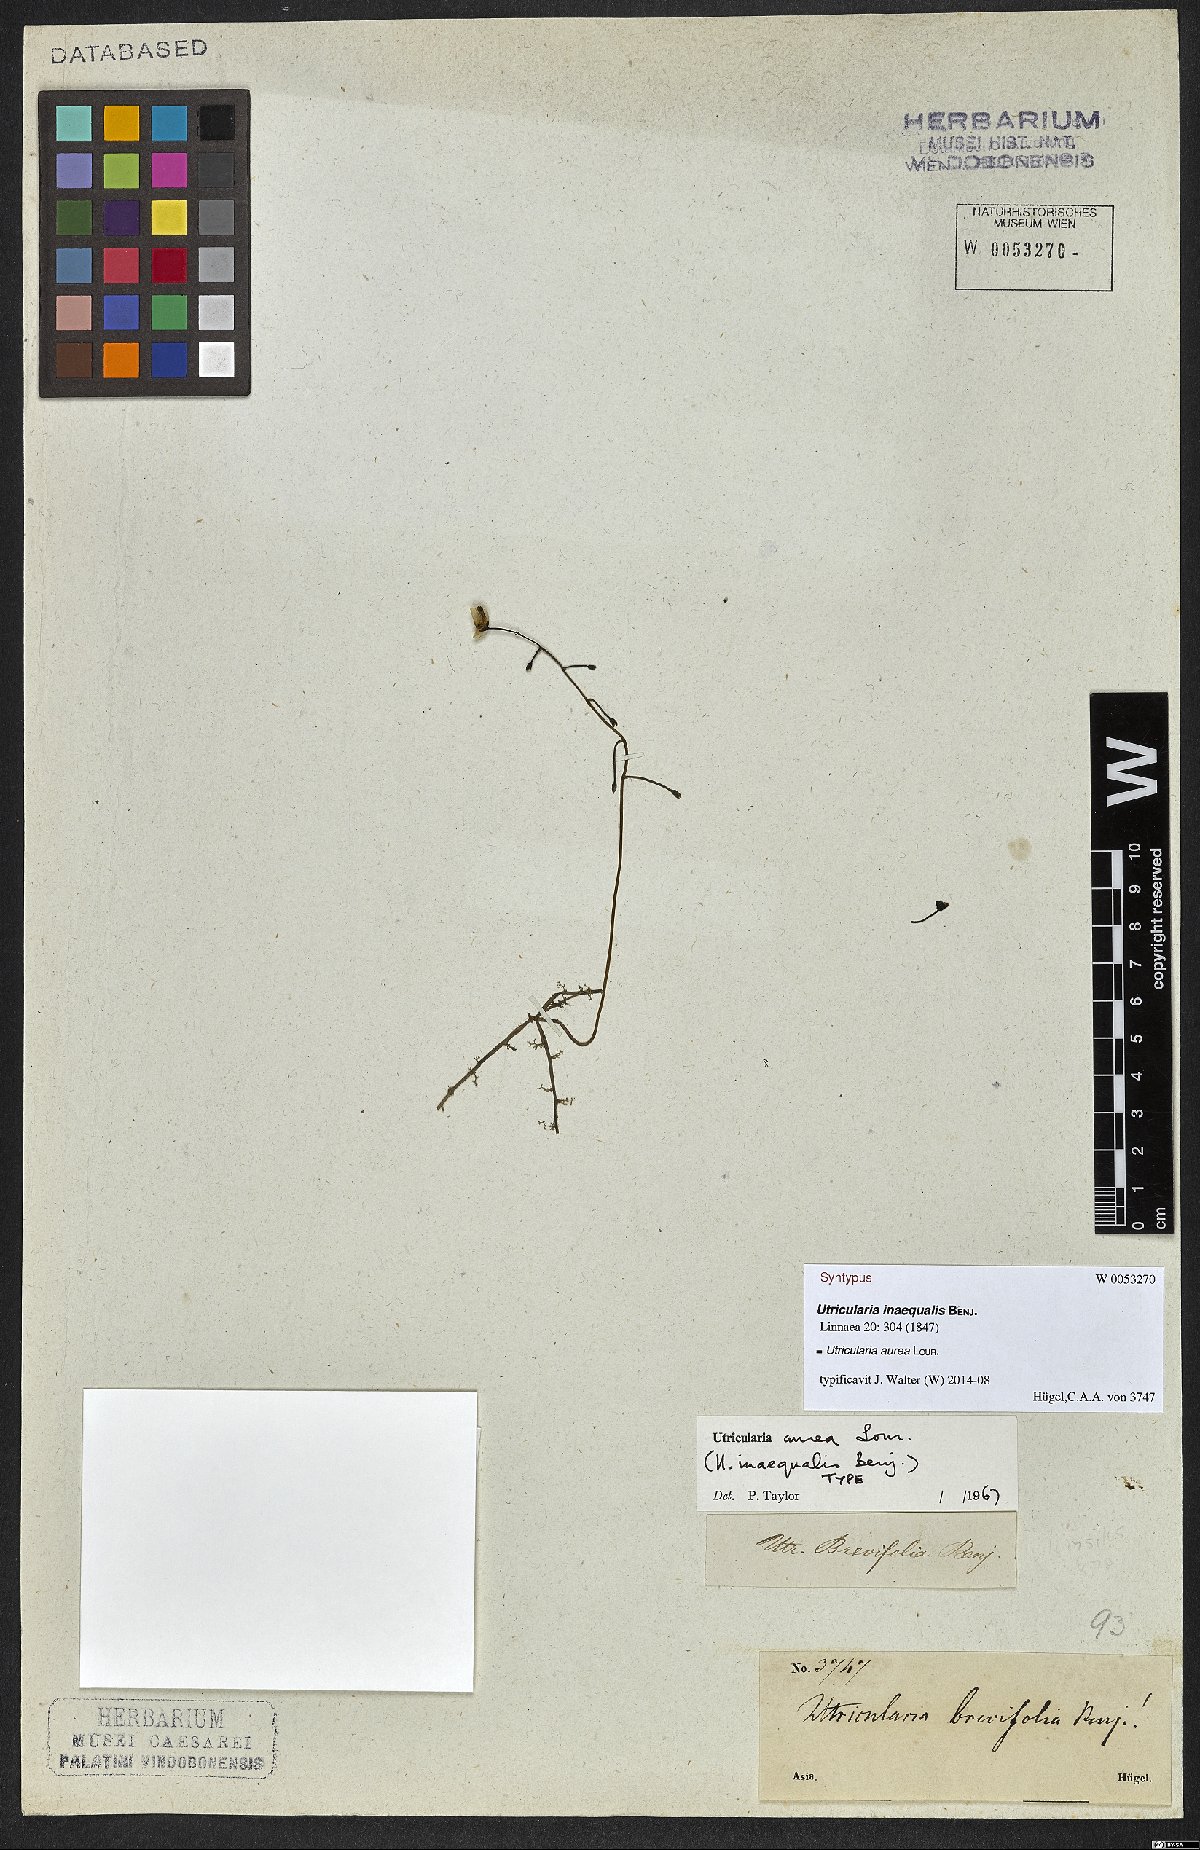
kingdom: Plantae
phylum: Tracheophyta
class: Magnoliopsida
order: Lamiales
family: Lentibulariaceae
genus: Utricularia
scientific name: Utricularia aurea
